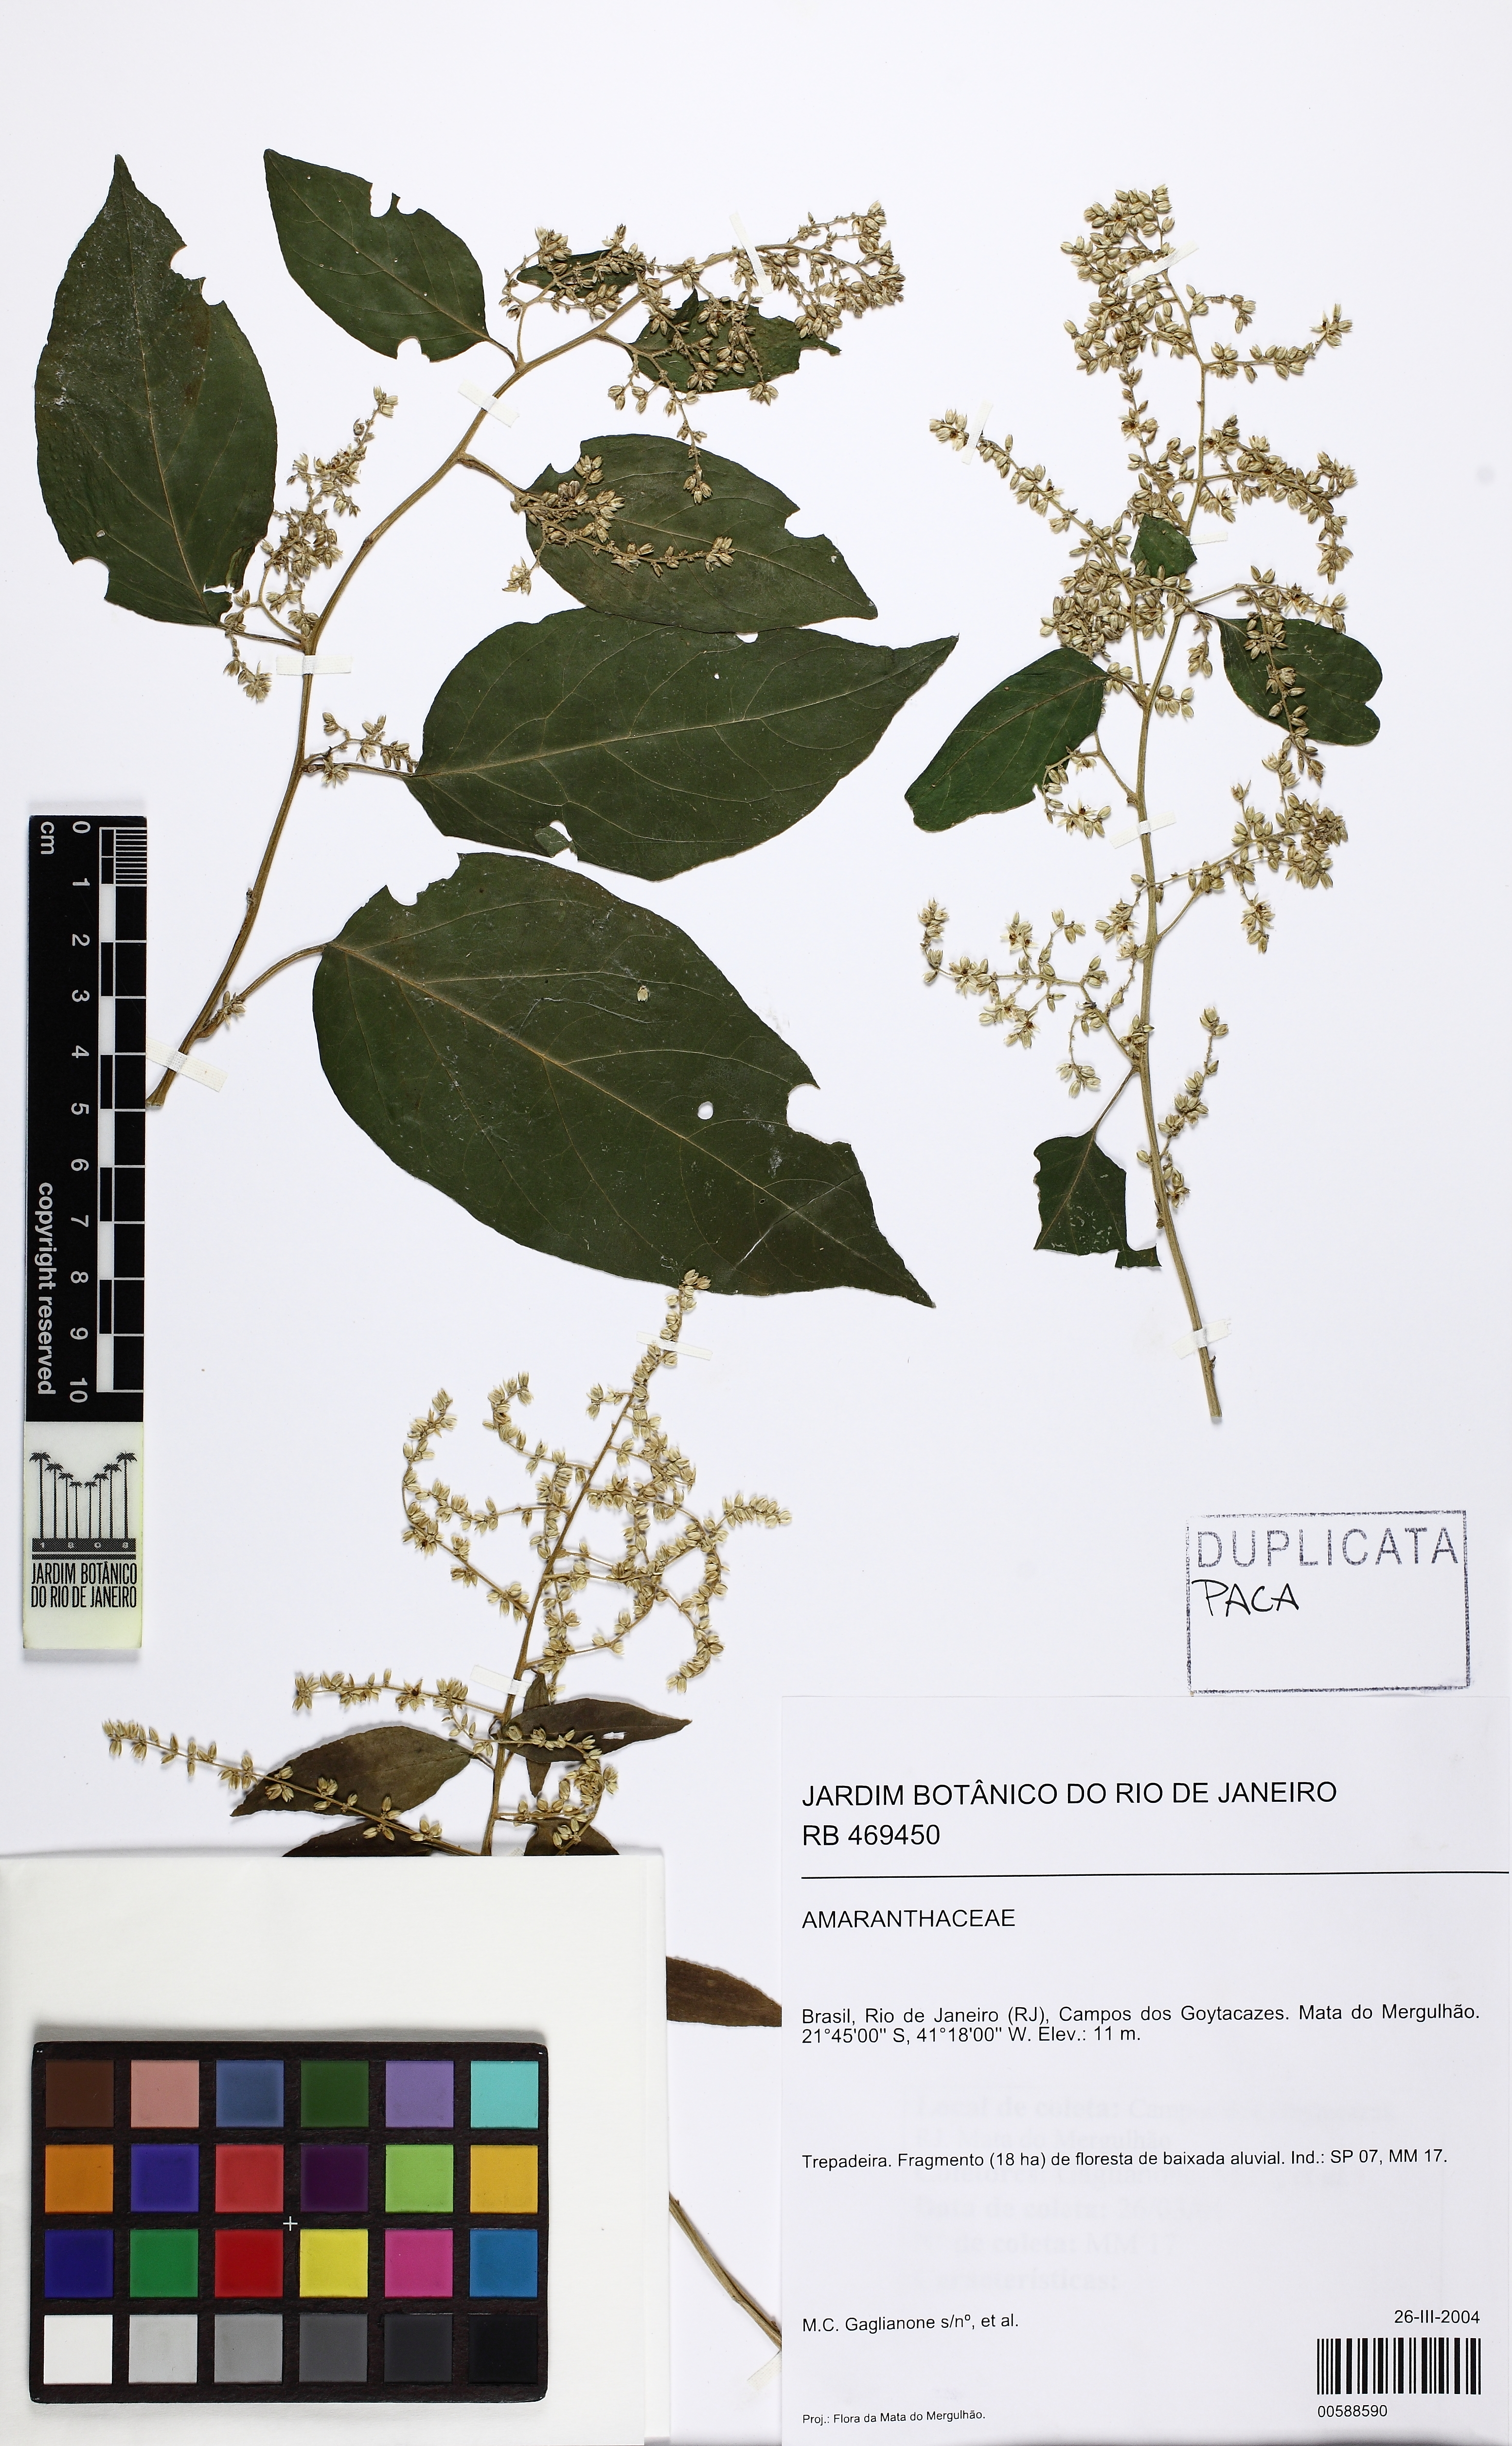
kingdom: Plantae
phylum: Tracheophyta
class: Magnoliopsida
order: Caryophyllales
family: Agdestidaceae
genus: Agdestis
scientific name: Agdestis
